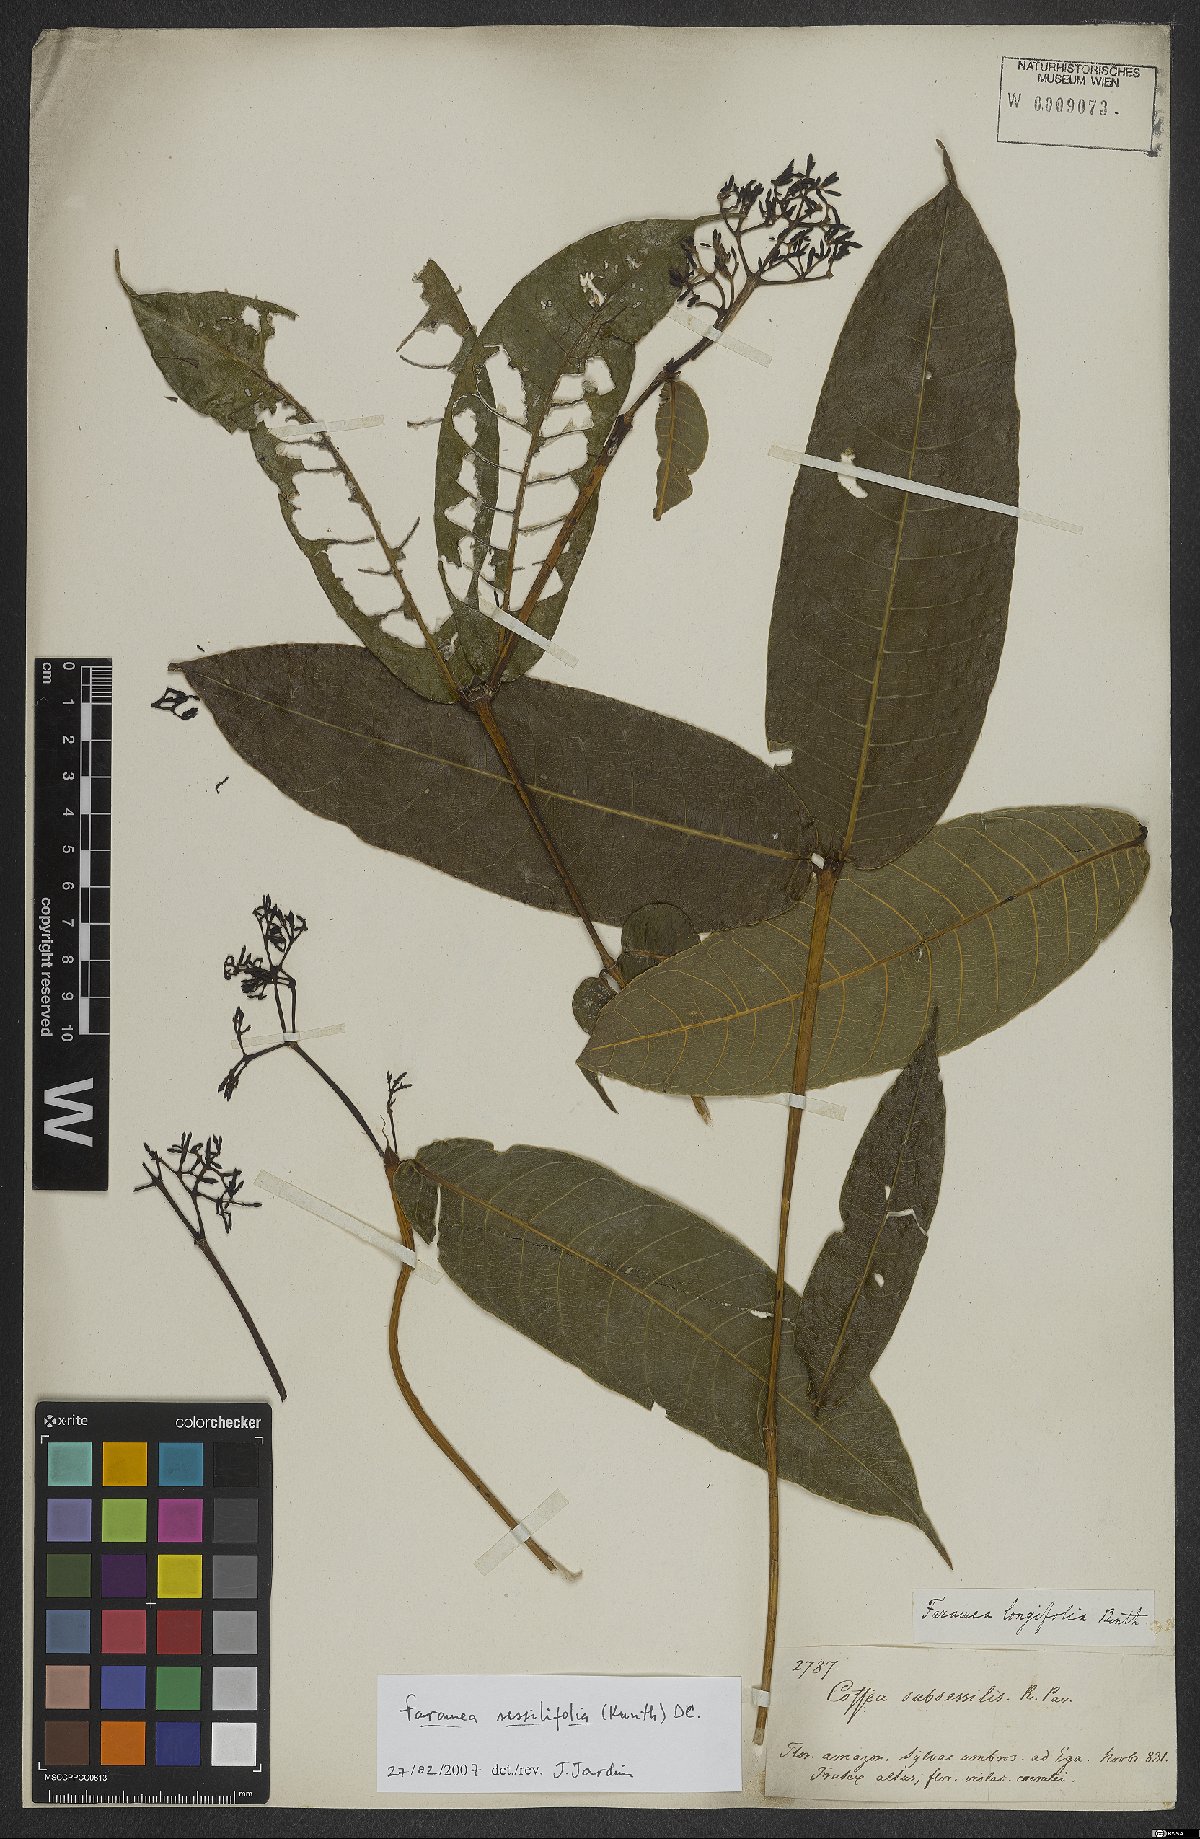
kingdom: Plantae
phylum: Tracheophyta
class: Magnoliopsida
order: Gentianales
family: Rubiaceae
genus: Faramea
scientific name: Faramea sessilifolia
